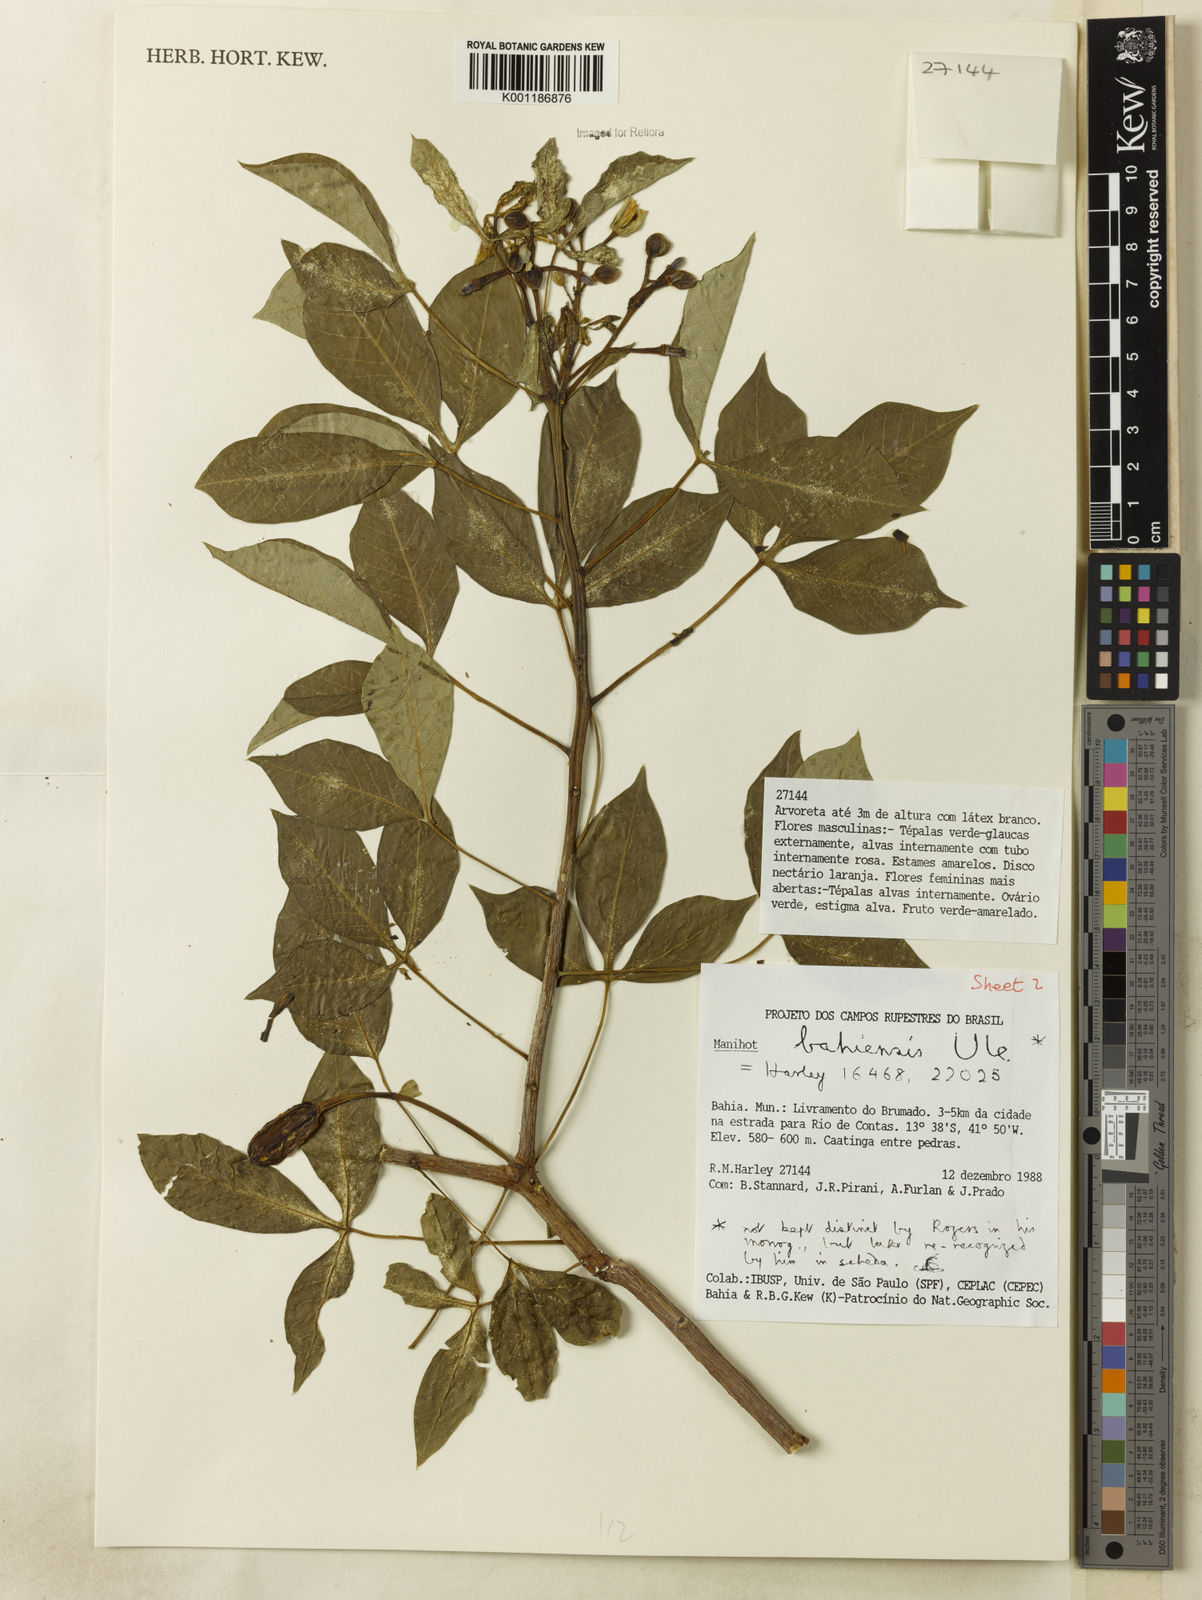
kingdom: Plantae
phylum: Tracheophyta
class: Magnoliopsida
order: Malpighiales
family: Euphorbiaceae
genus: Manihot
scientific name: Manihot caerulescens
